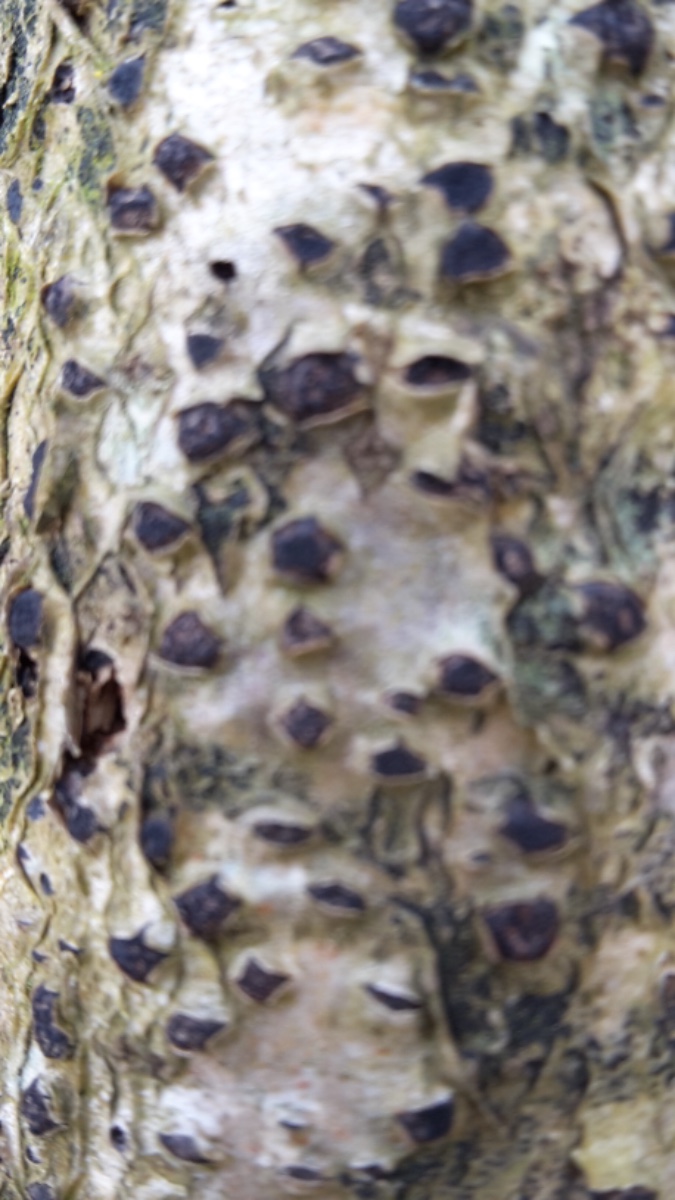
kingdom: Fungi
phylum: Ascomycota
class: Sordariomycetes
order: Xylariales
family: Diatrypaceae
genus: Diatrypella
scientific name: Diatrypella quercina
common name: ege-kulskorpe
